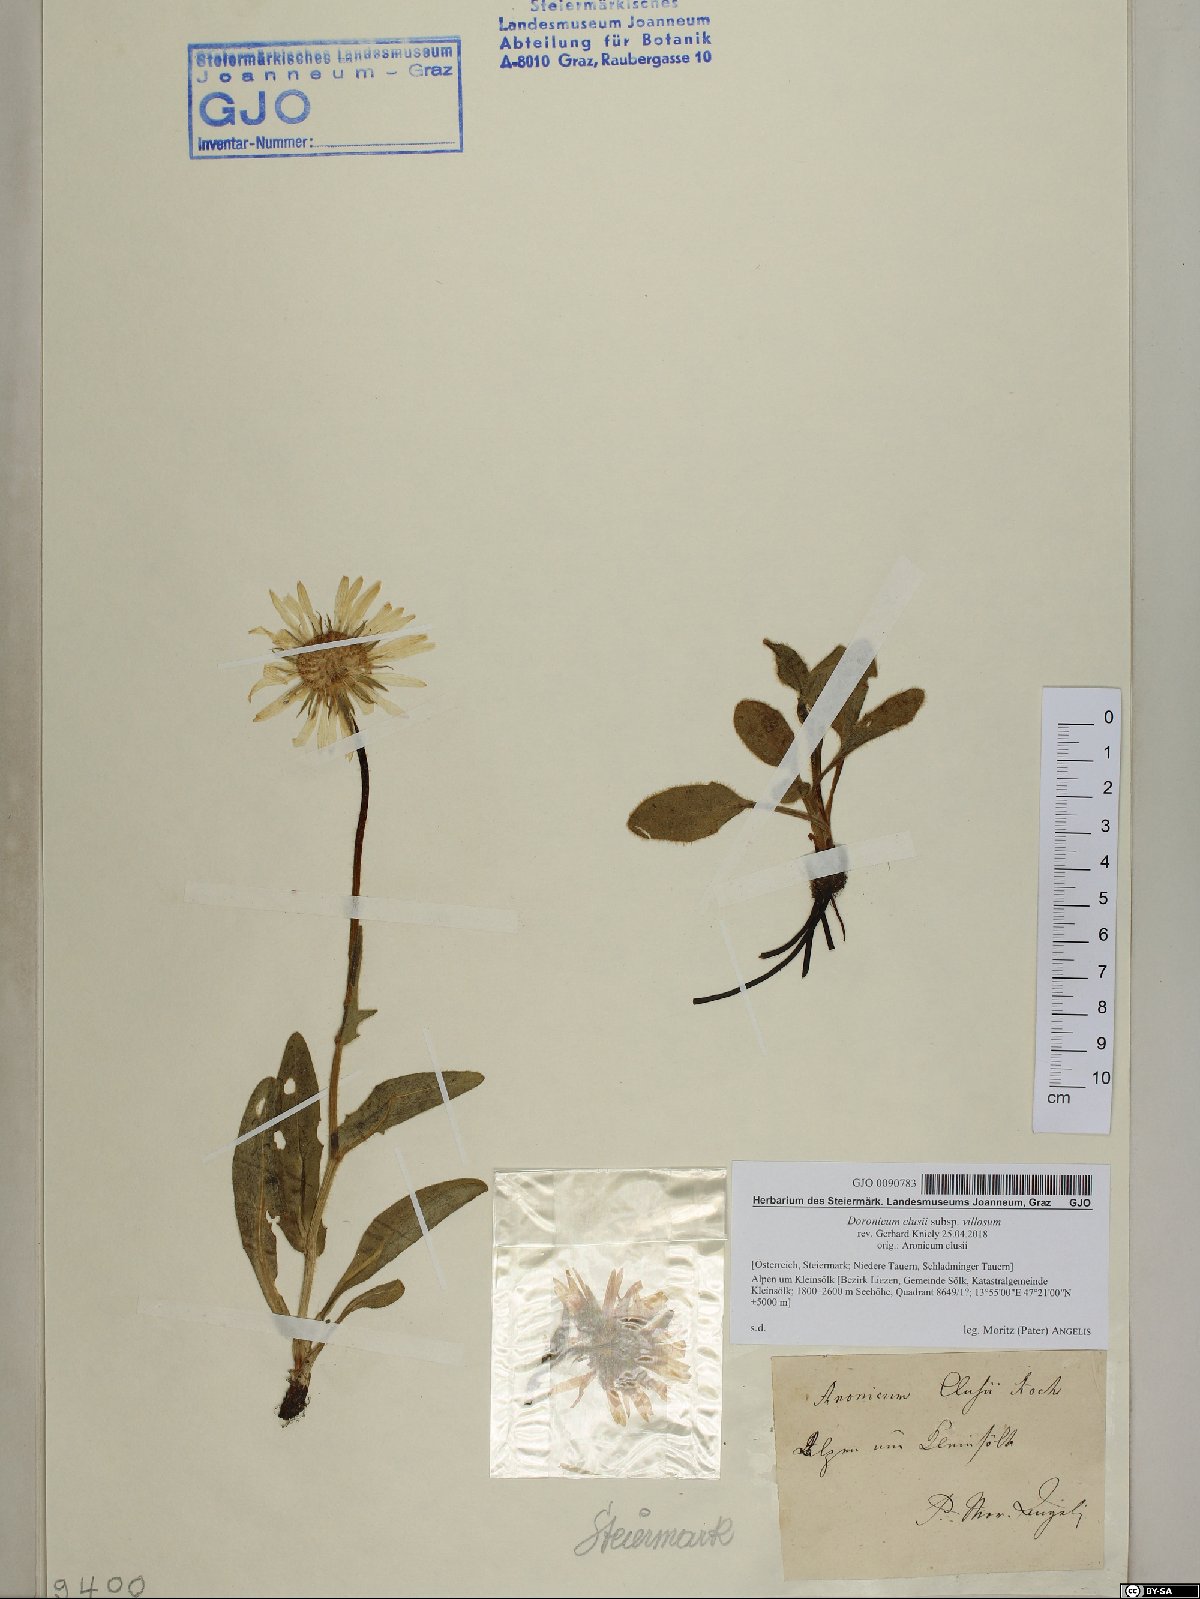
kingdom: Plantae
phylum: Tracheophyta
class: Magnoliopsida
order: Asterales
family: Asteraceae
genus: Doronicum
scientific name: Doronicum clusii
